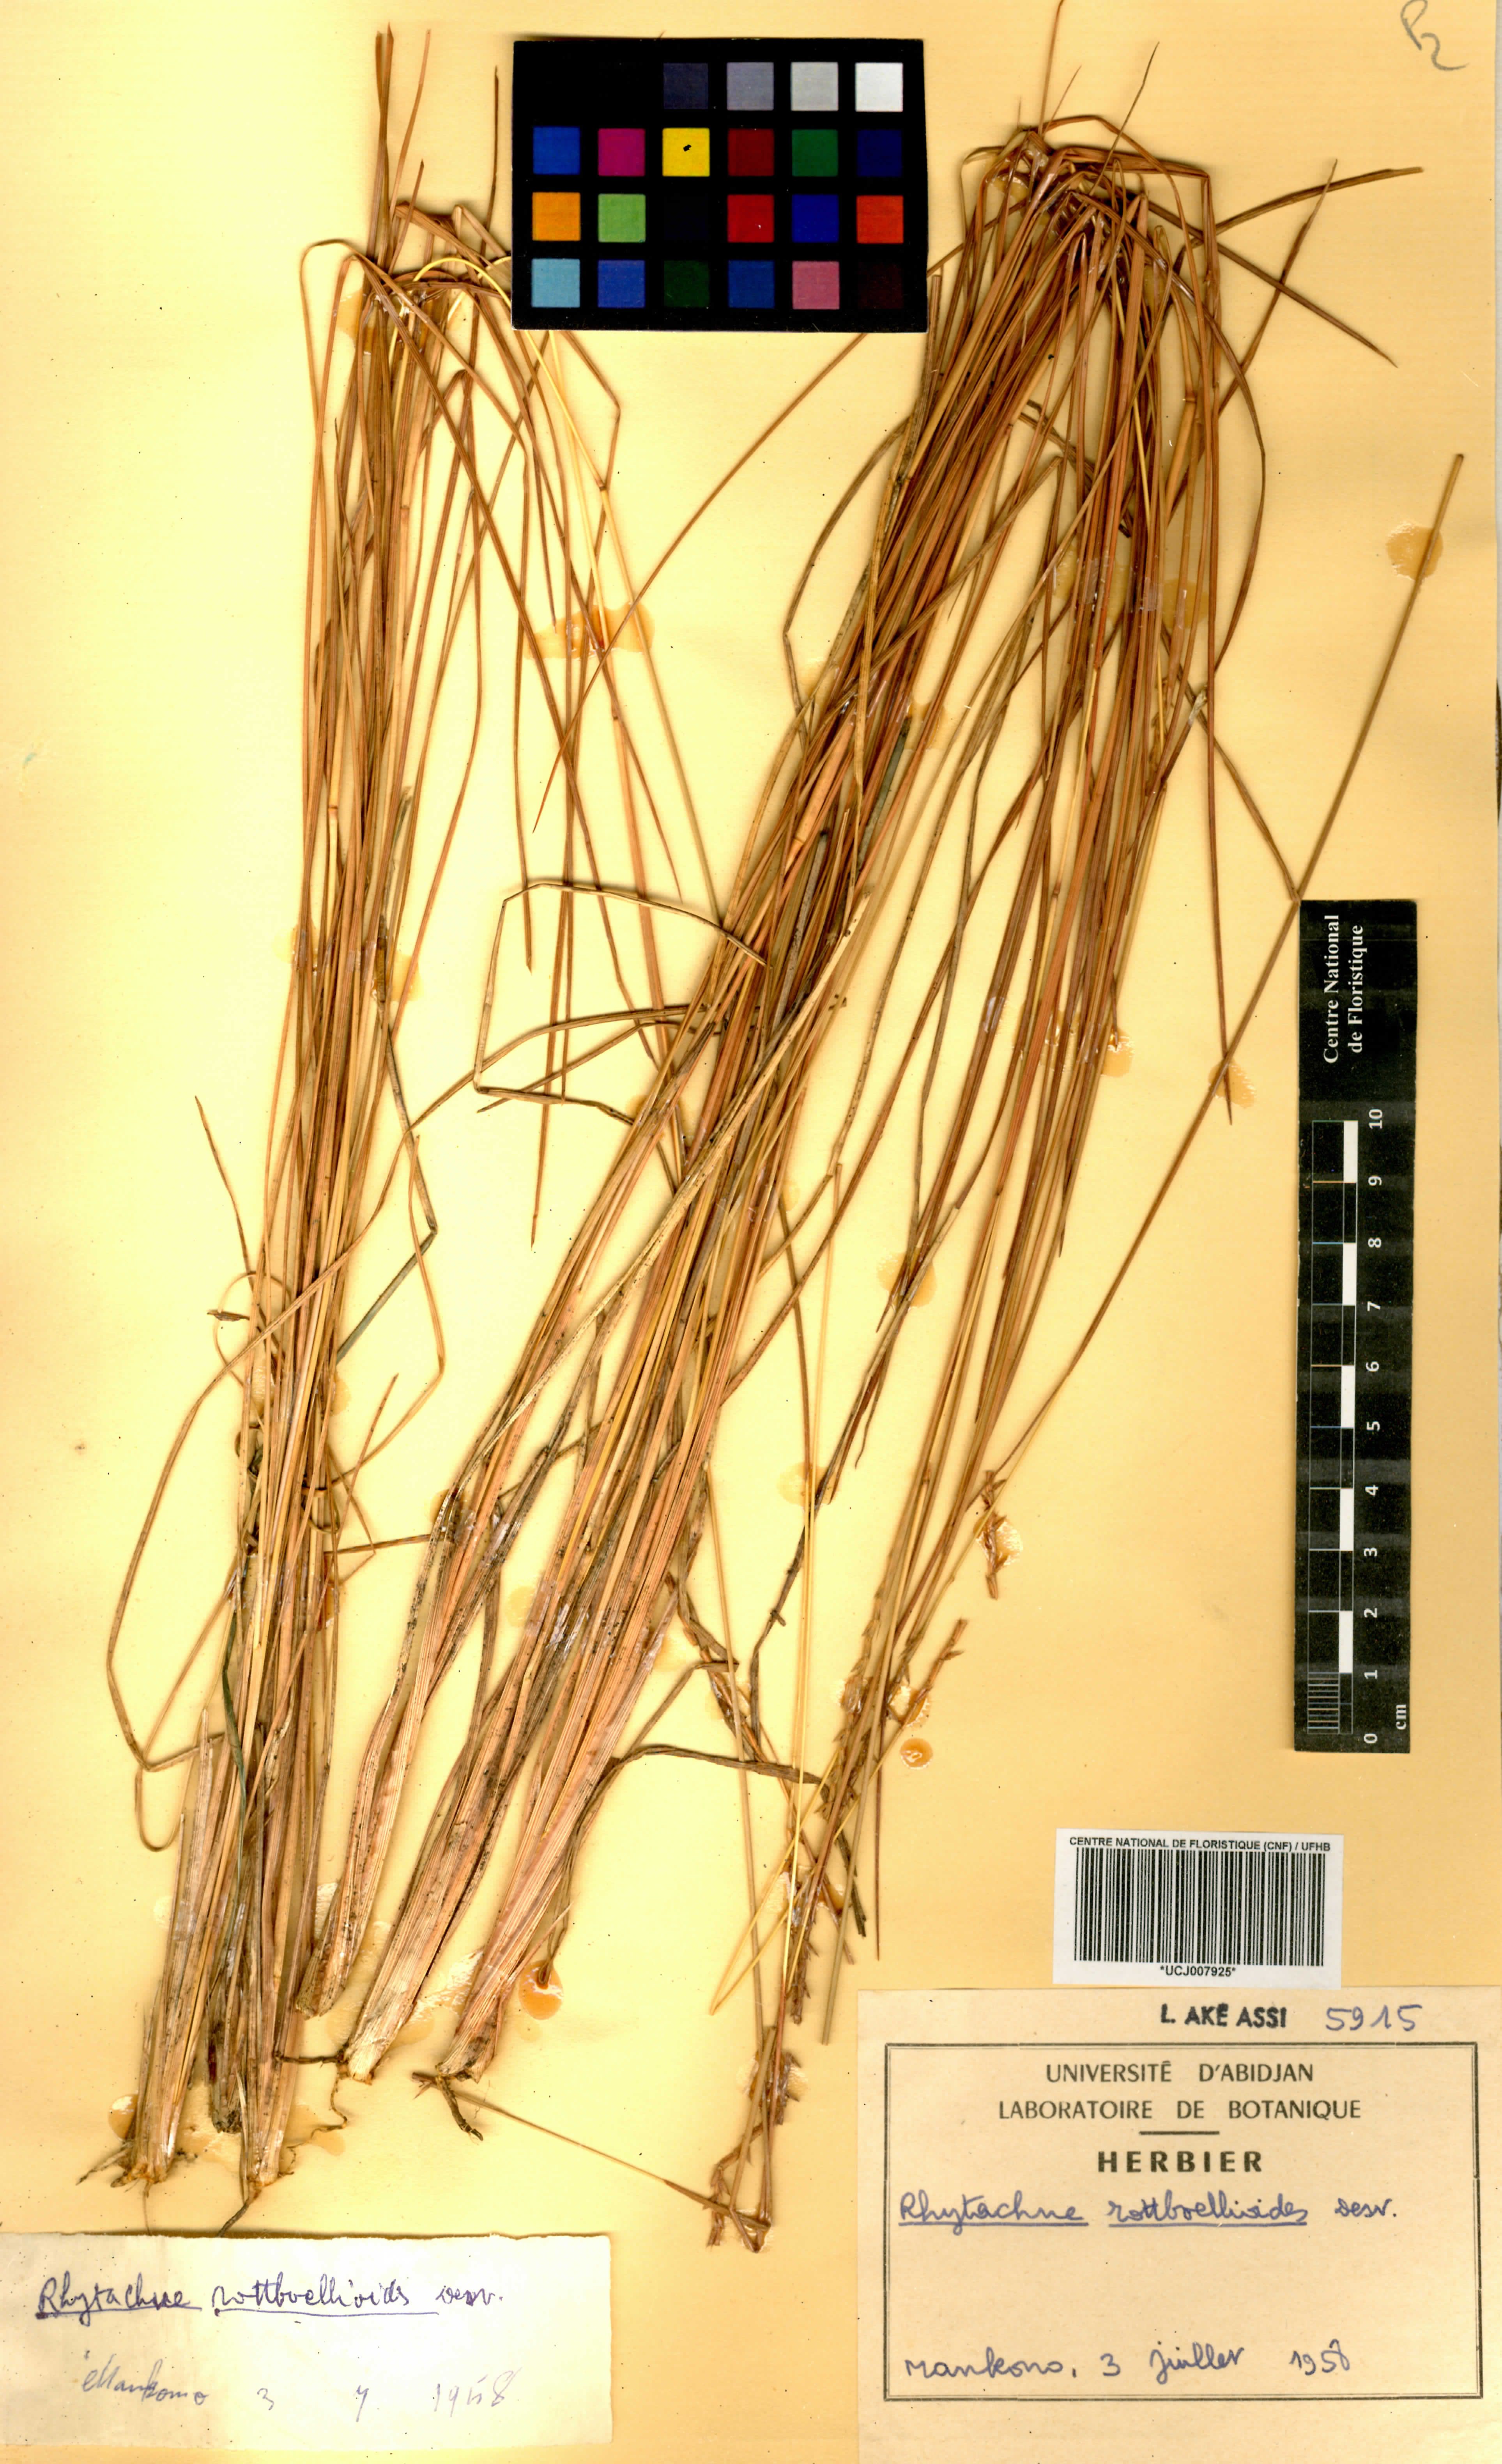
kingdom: Plantae
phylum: Tracheophyta
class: Liliopsida
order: Poales
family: Poaceae
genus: Rhytachne
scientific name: Rhytachne rottboellioides
